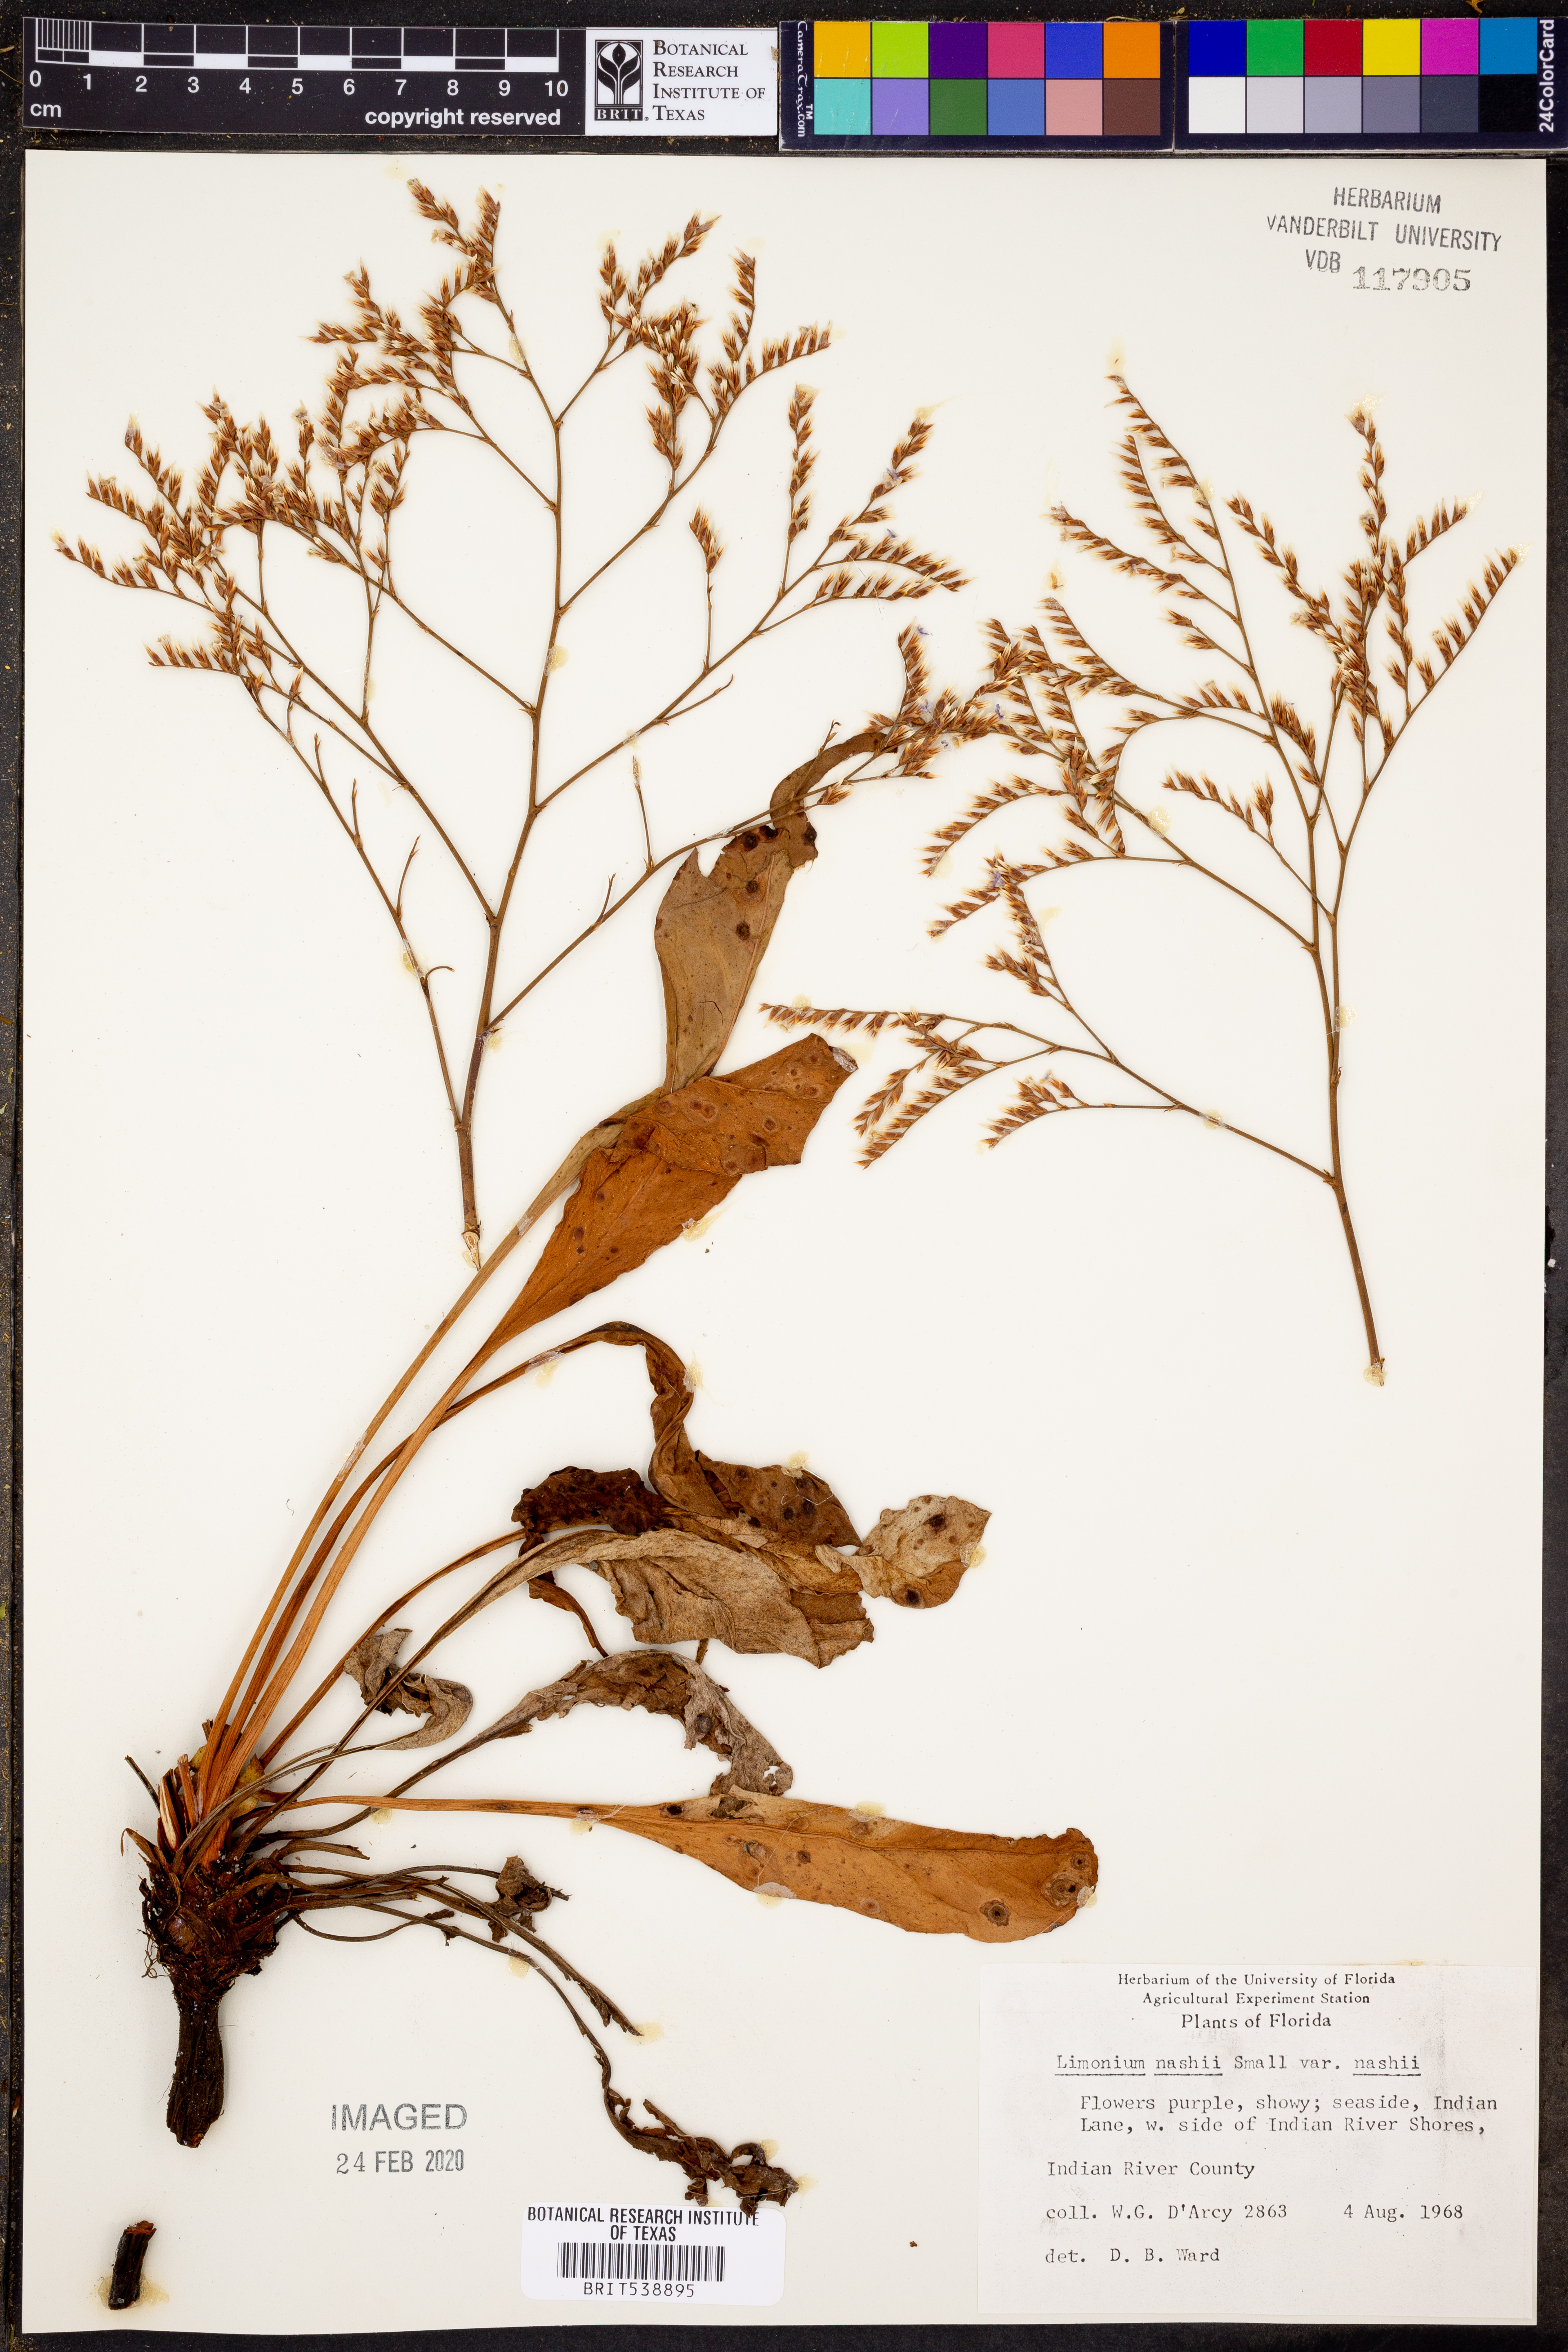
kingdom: Plantae
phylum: Tracheophyta
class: Magnoliopsida
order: Caryophyllales
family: Plumbaginaceae
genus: Limonium
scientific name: Limonium carolinianum
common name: Carolina sea lavender
